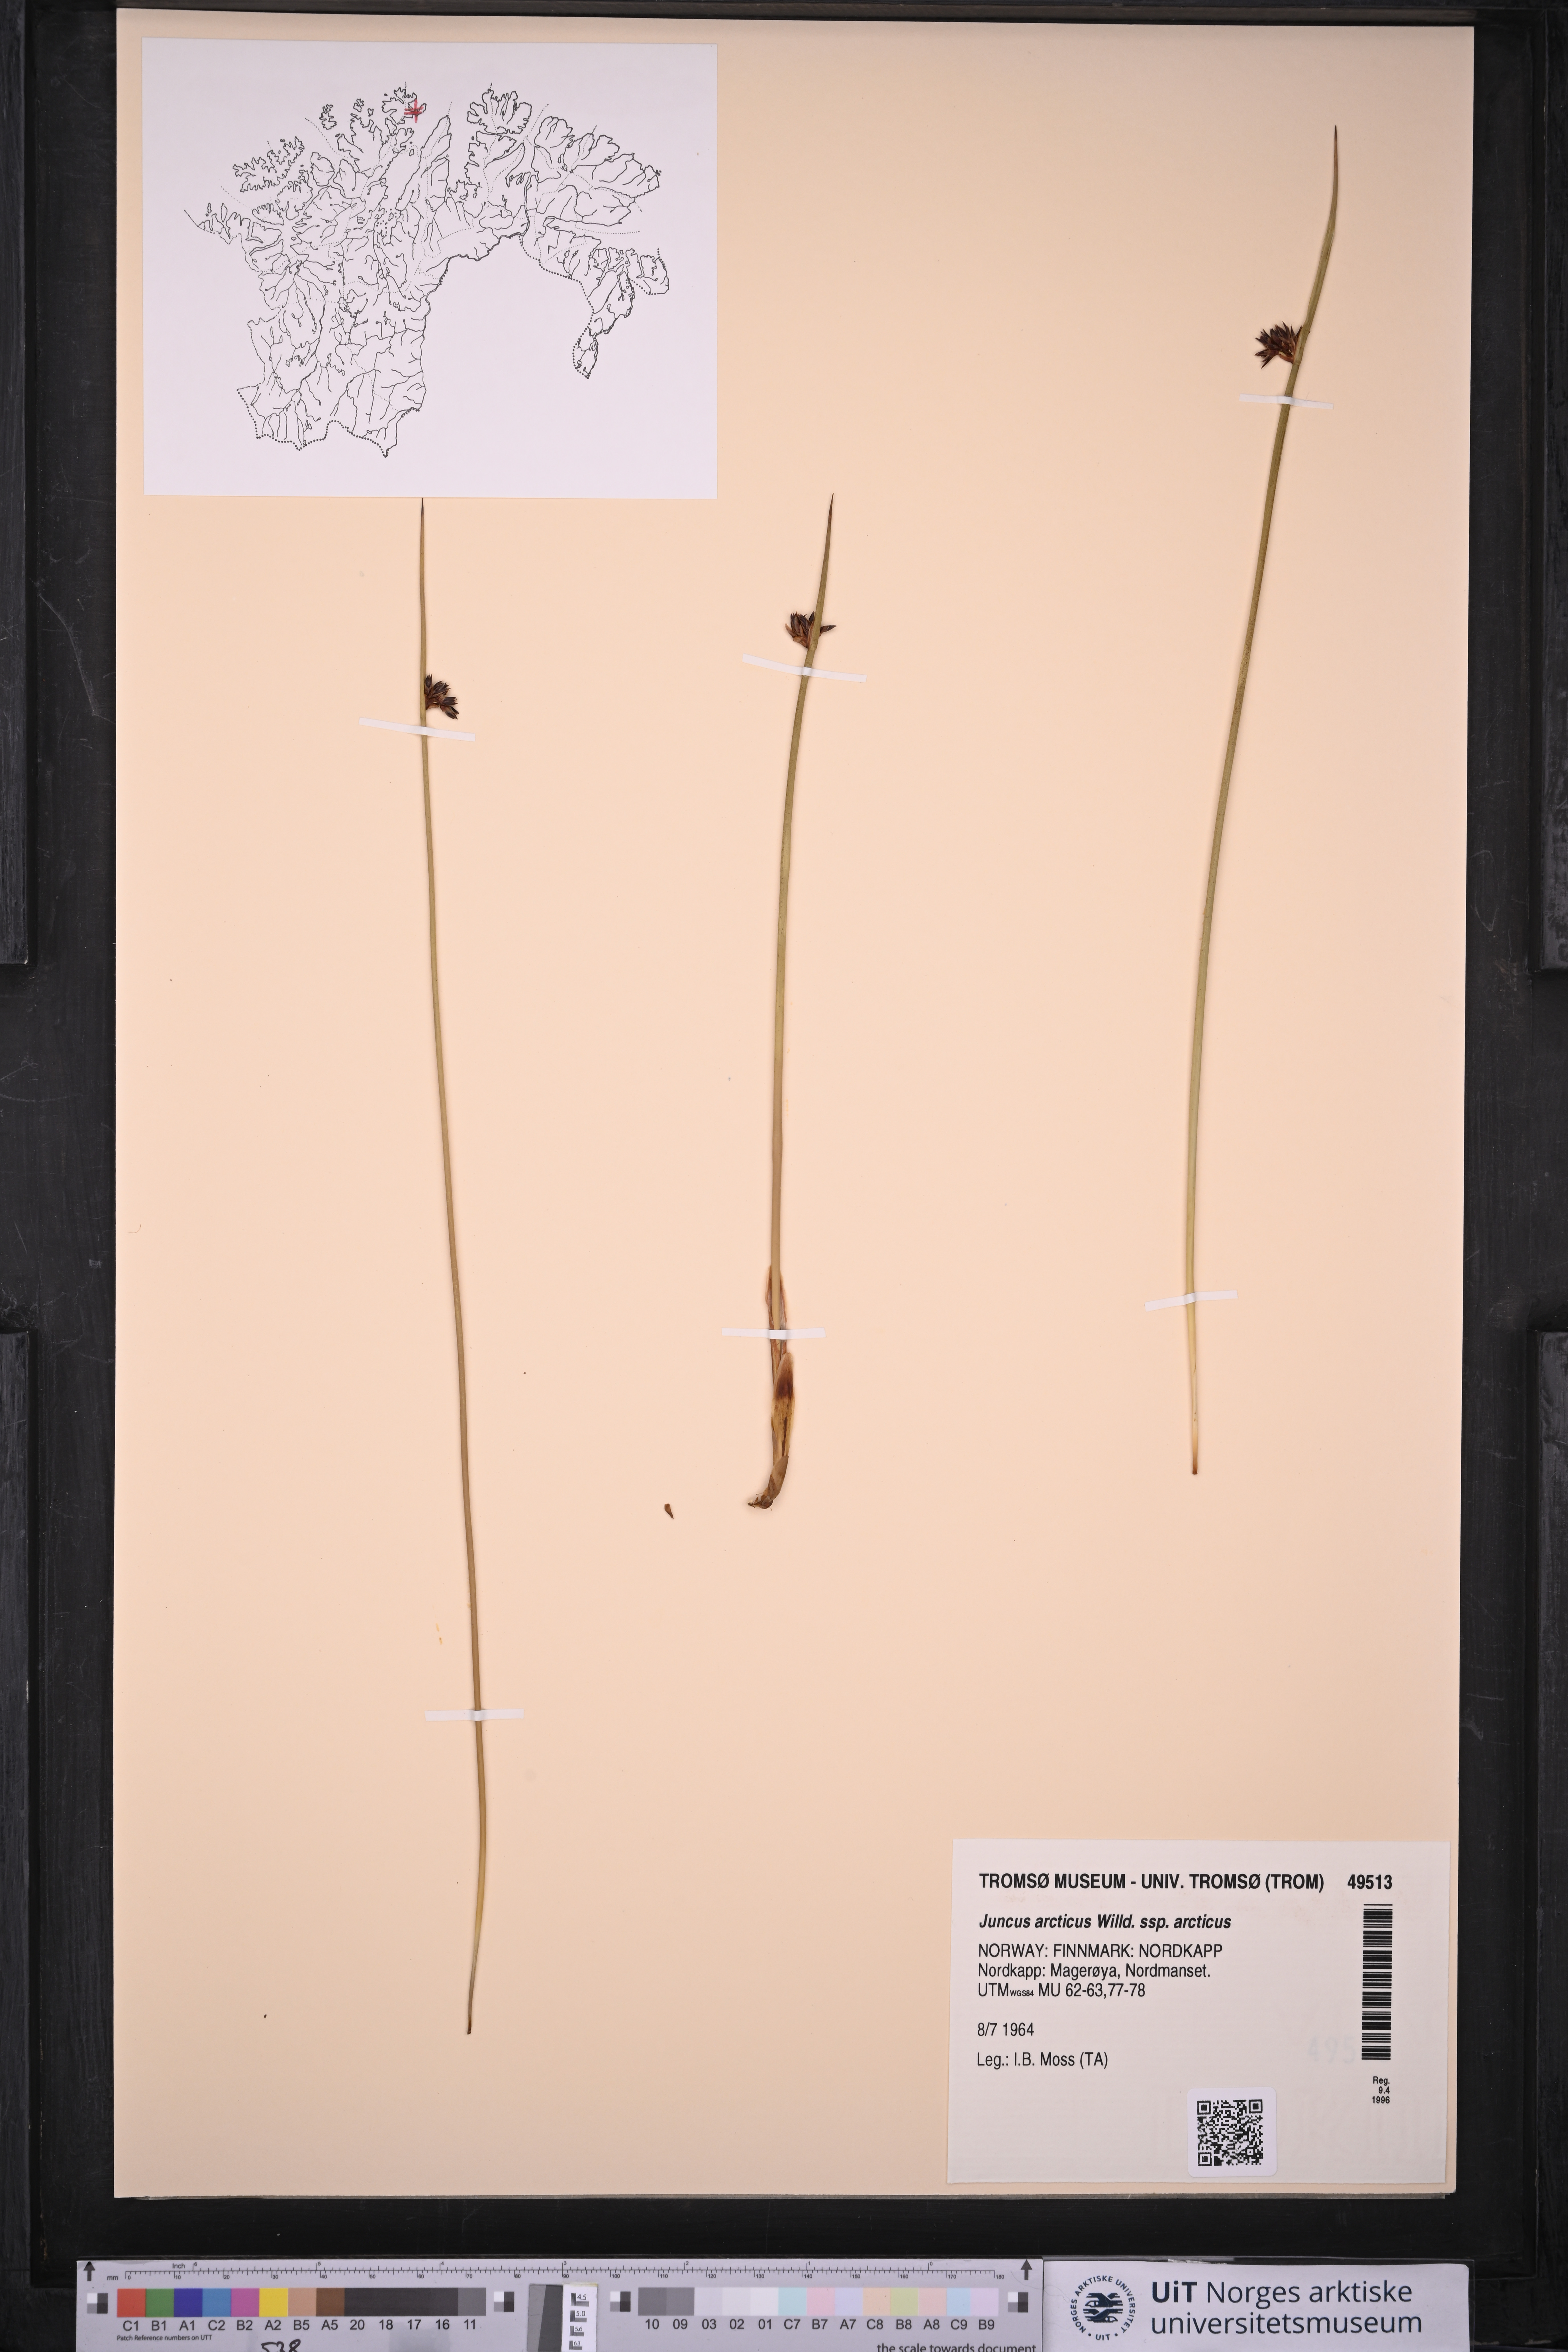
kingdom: Plantae
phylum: Tracheophyta
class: Liliopsida
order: Poales
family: Juncaceae
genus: Juncus
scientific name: Juncus arcticus
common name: Arctic rush
